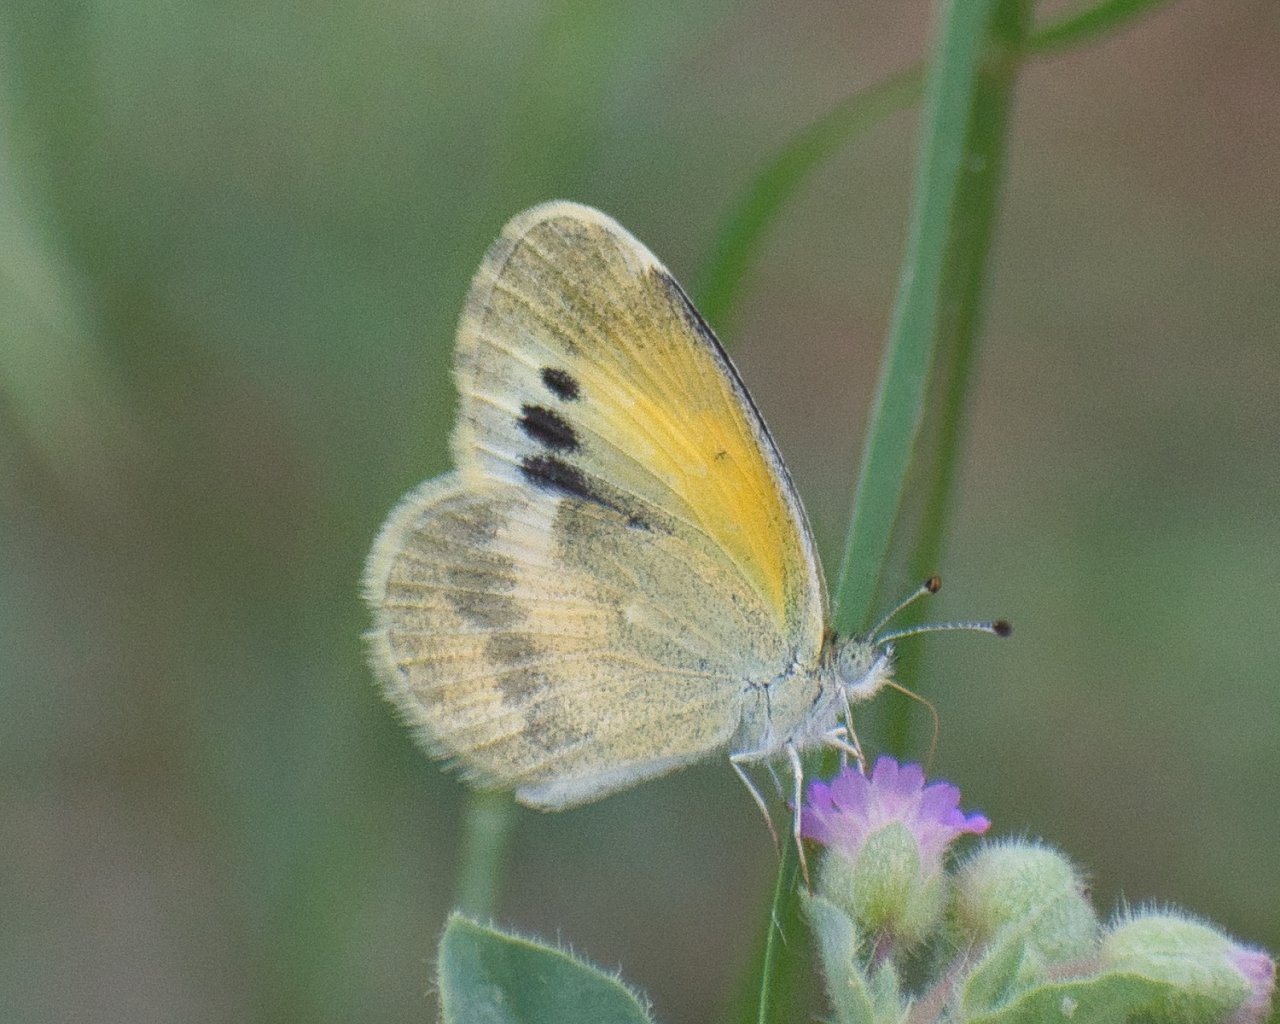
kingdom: Animalia
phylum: Arthropoda
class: Insecta
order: Lepidoptera
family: Pieridae
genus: Nathalis
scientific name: Nathalis iole
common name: Dainty Sulphur
